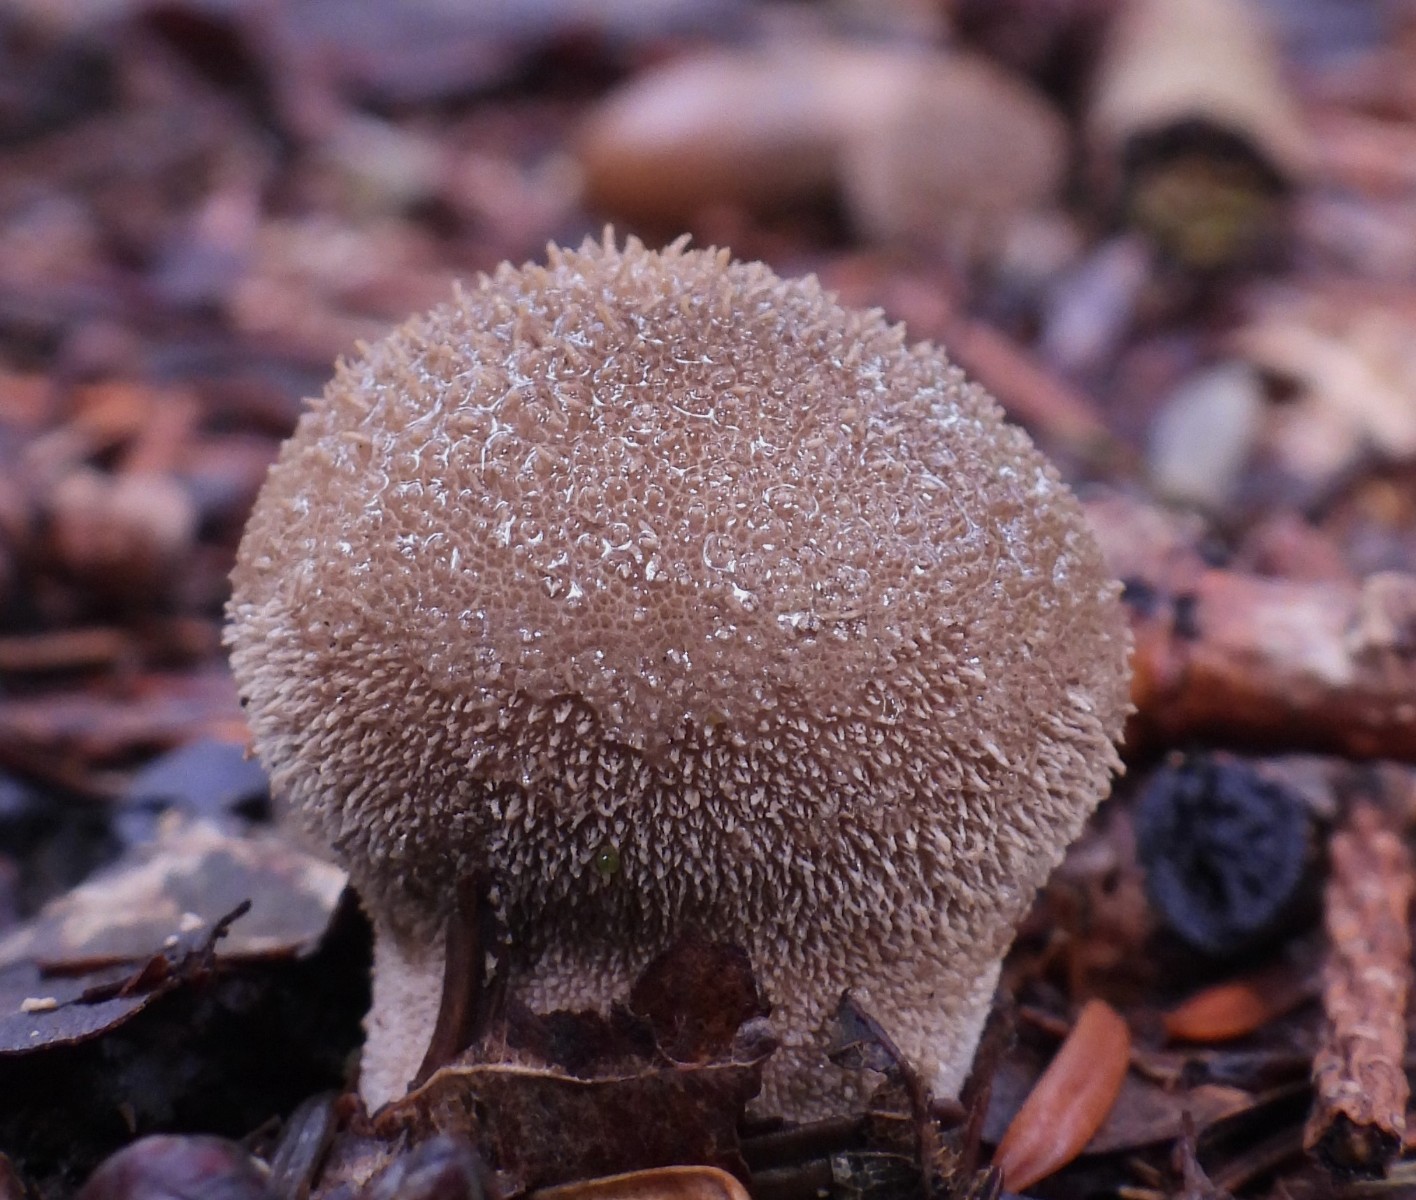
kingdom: Fungi
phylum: Basidiomycota
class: Agaricomycetes
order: Agaricales
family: Lycoperdaceae
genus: Lycoperdon
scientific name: Lycoperdon nigrescens
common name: sortagtig støvbold
